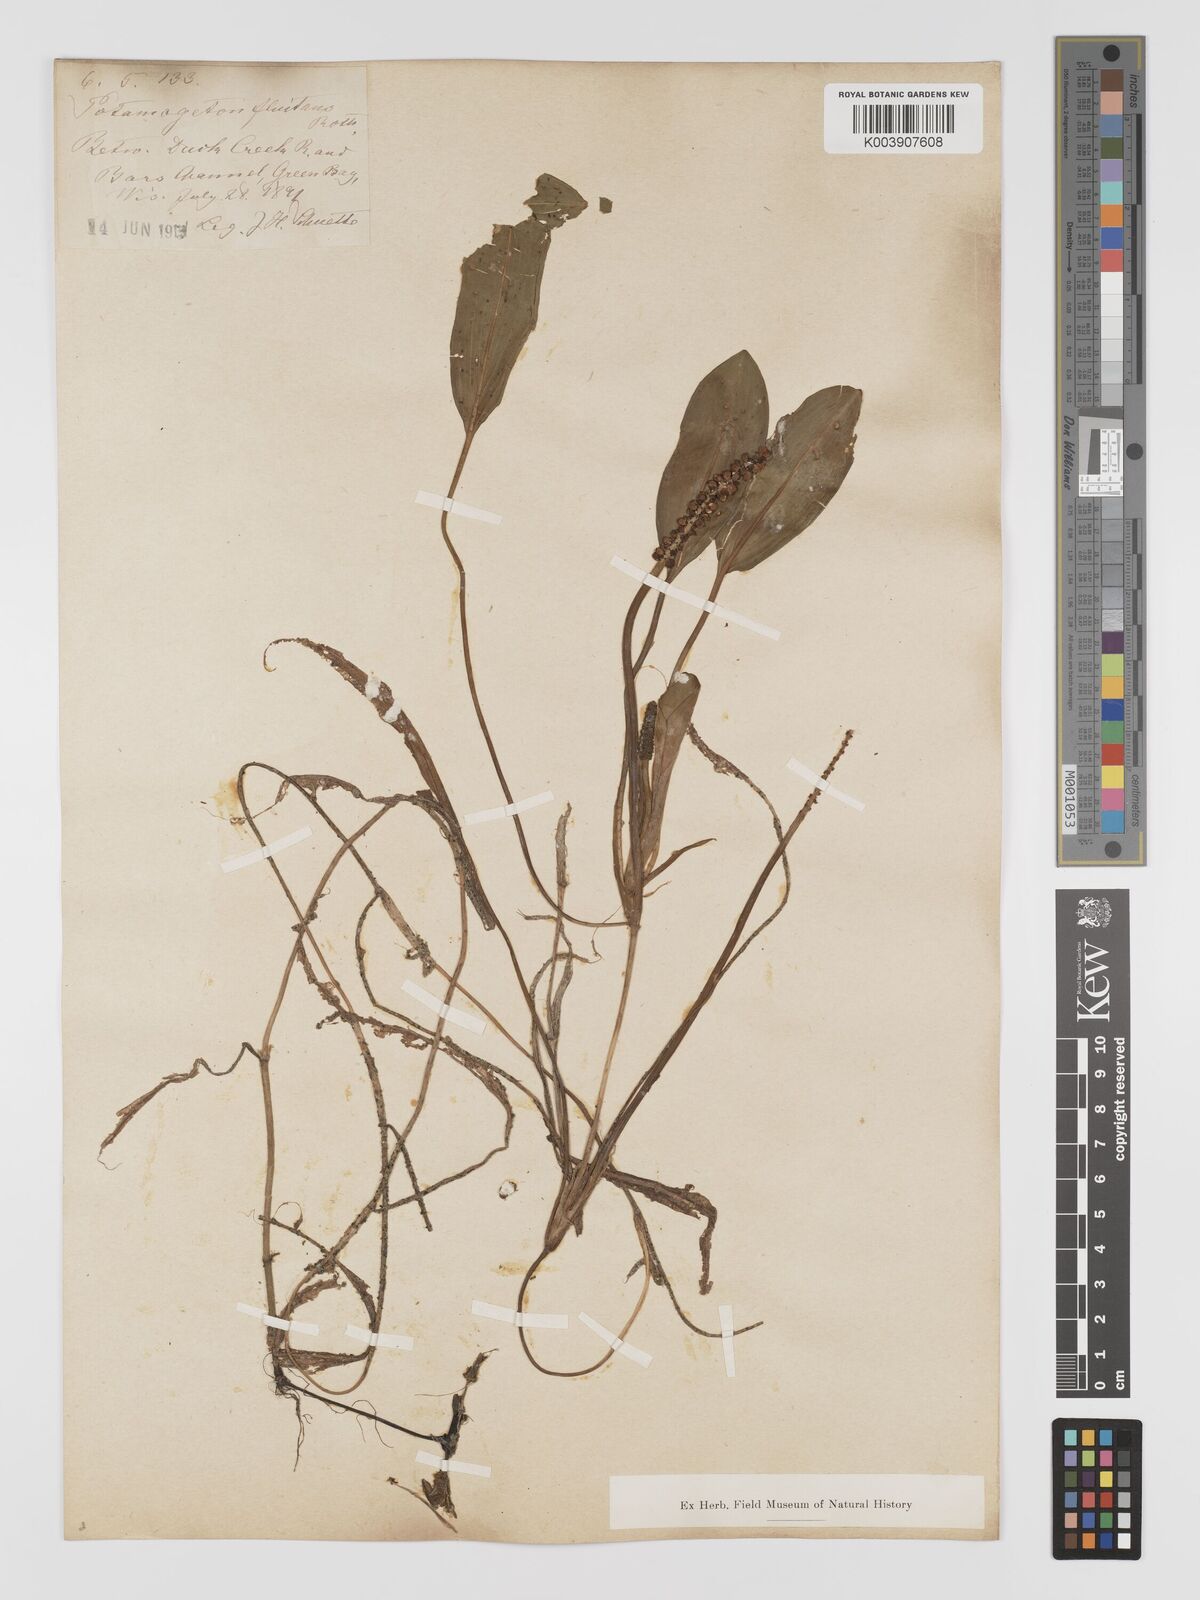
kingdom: Plantae
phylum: Tracheophyta
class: Liliopsida
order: Alismatales
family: Potamogetonaceae
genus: Potamogeton
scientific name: Potamogeton nodosus
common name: Loddon pondweed
